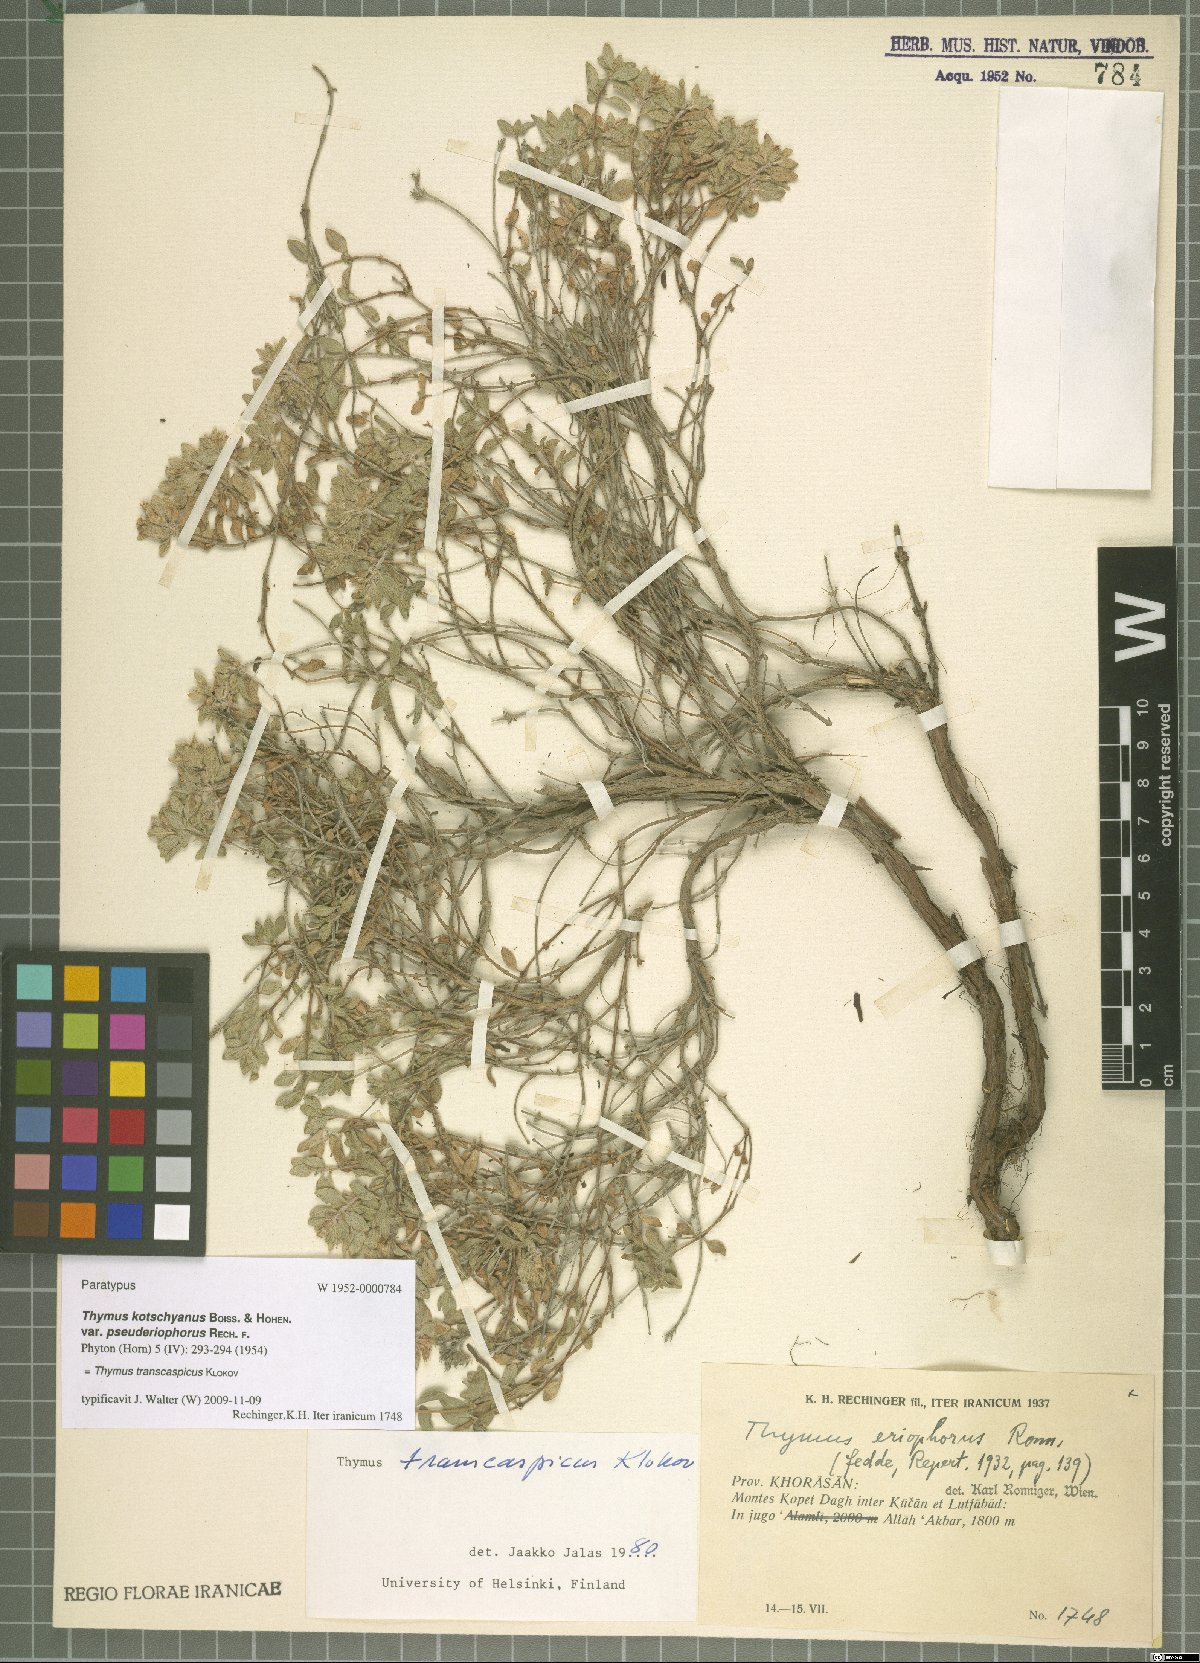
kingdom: Plantae
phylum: Tracheophyta
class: Magnoliopsida
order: Lamiales
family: Lamiaceae
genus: Thymus
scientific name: Thymus transcaspicus
